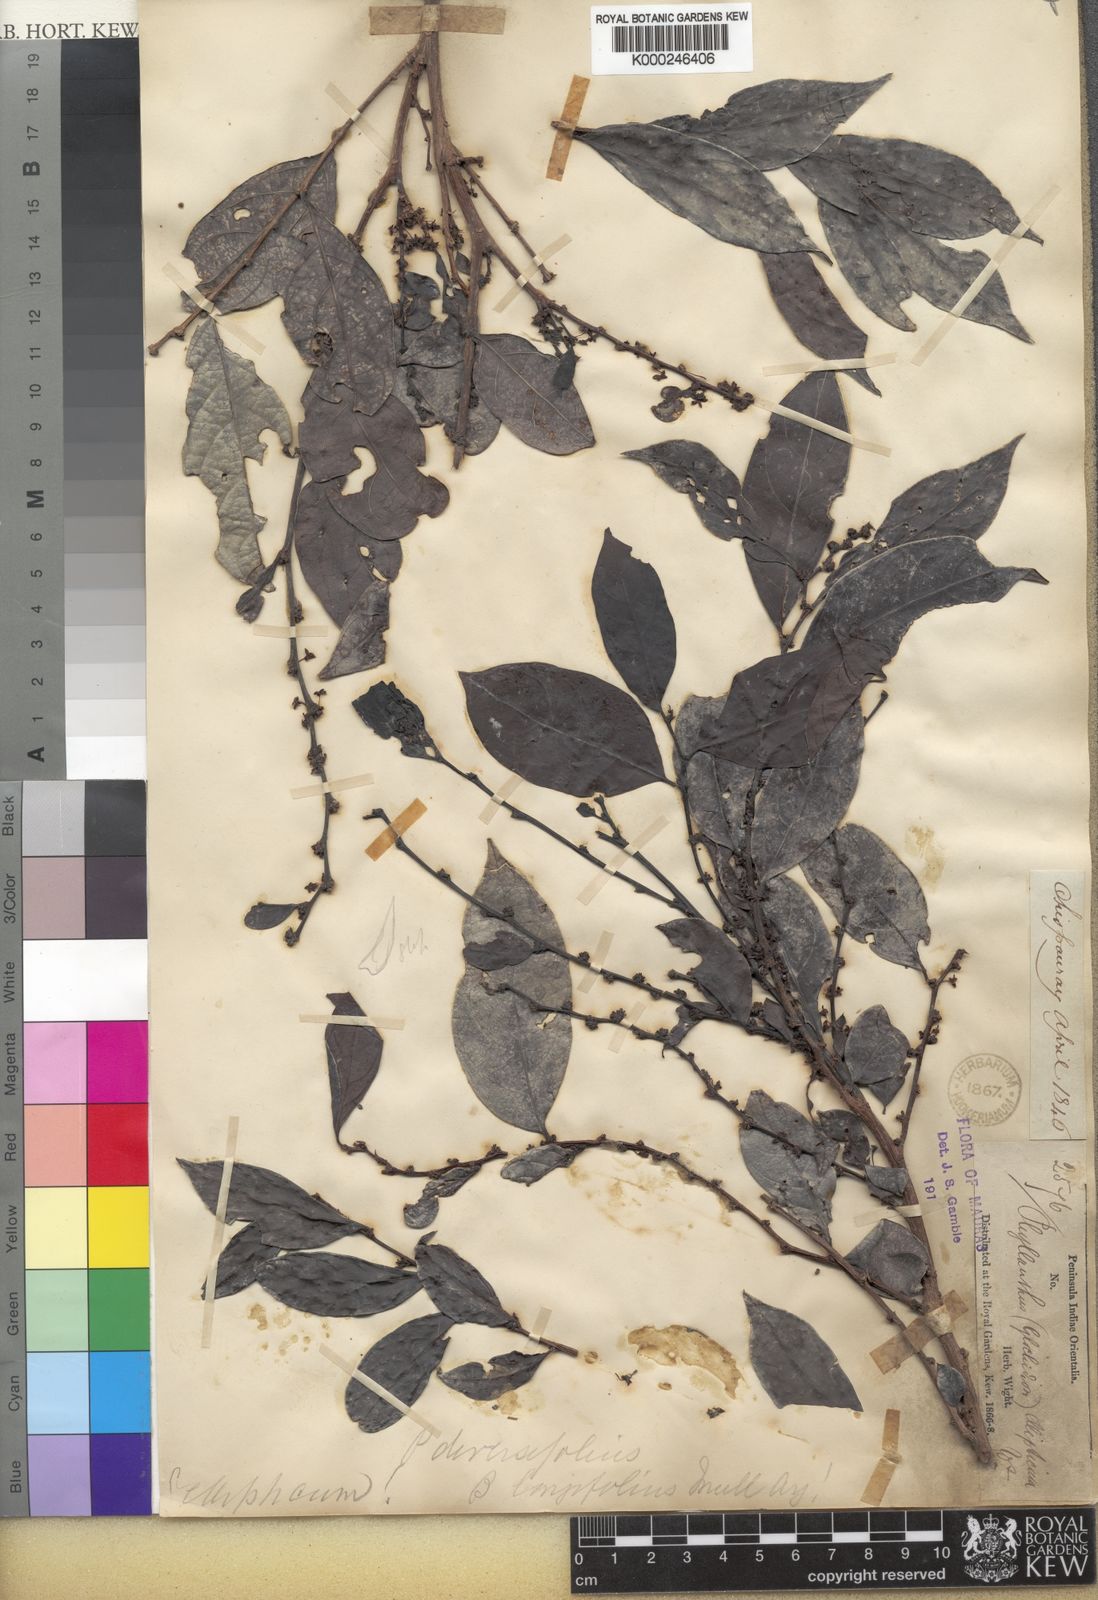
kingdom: Plantae
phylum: Tracheophyta
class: Magnoliopsida
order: Malpighiales
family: Phyllanthaceae
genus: Glochidion
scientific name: Glochidion ellipticum
